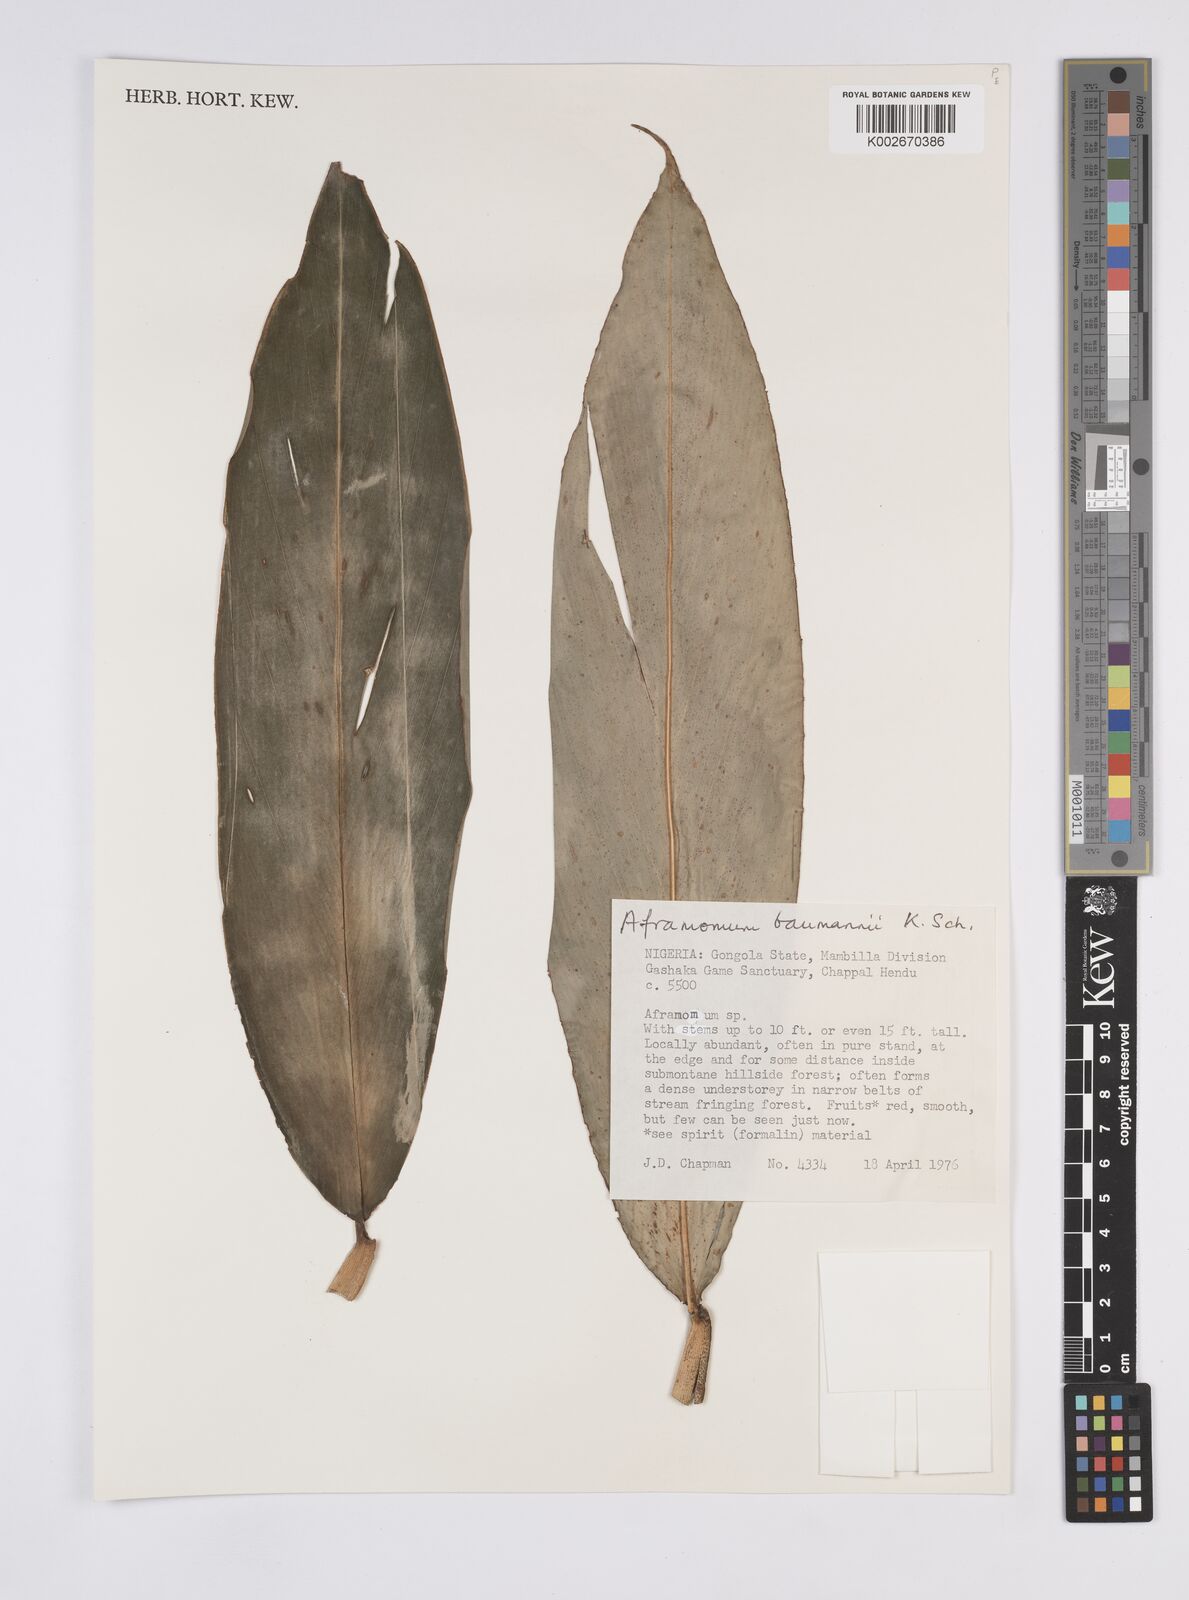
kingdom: Plantae
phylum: Tracheophyta
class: Liliopsida
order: Zingiberales
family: Zingiberaceae
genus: Aframomum
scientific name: Aframomum angustifolium
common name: Guinea grains
